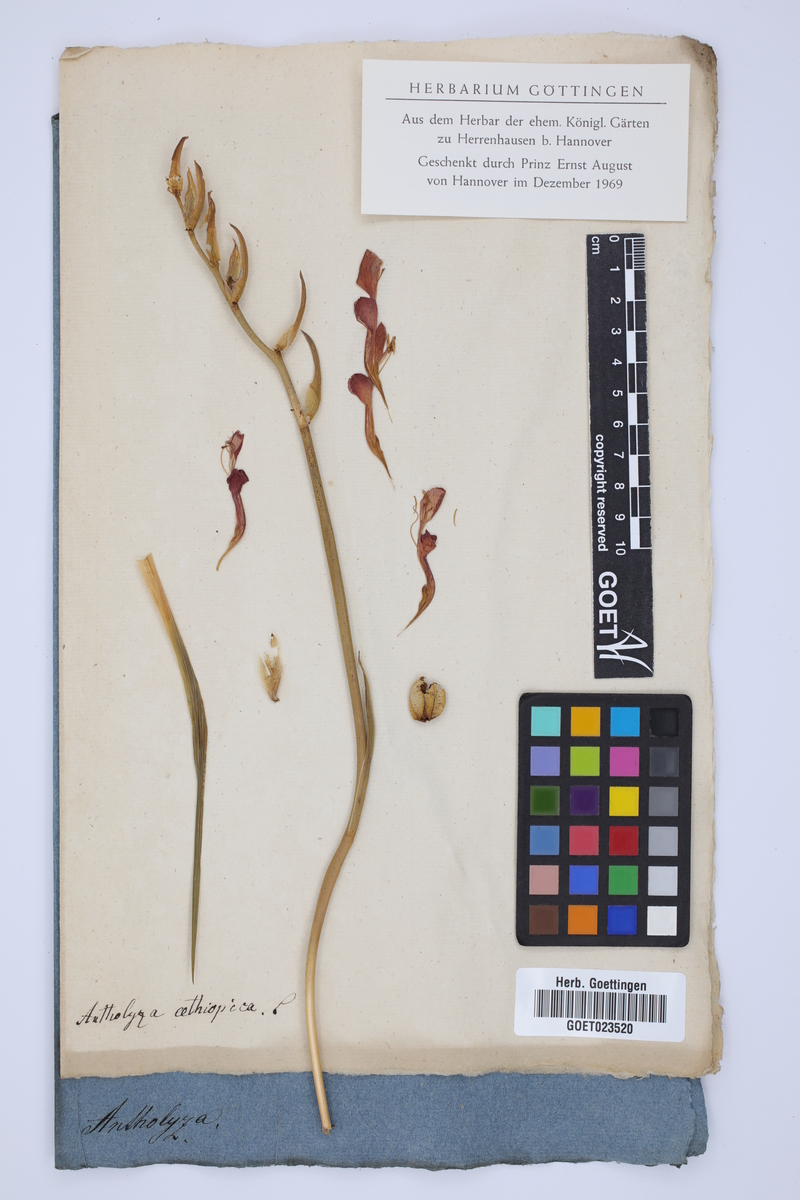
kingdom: Plantae
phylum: Tracheophyta
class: Liliopsida
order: Asparagales
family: Iridaceae
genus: Chasmanthe
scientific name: Chasmanthe aethiopica
